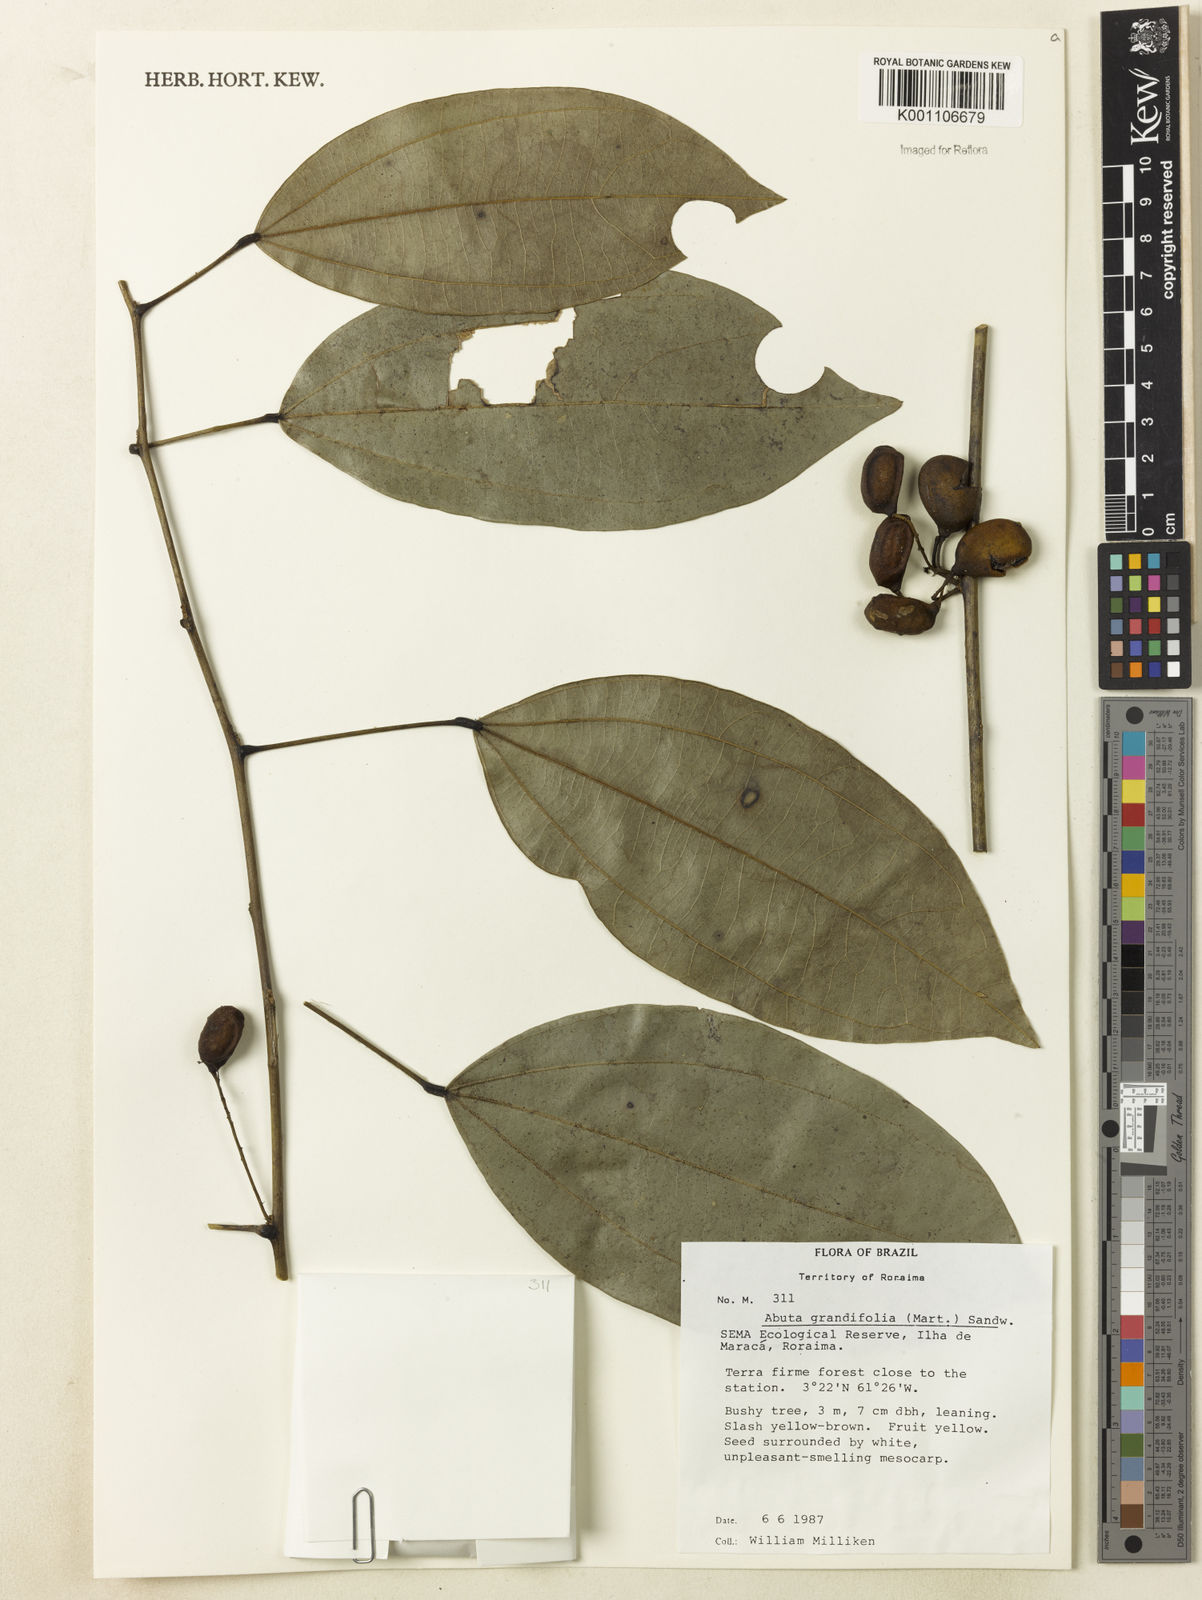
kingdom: Plantae
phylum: Tracheophyta
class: Magnoliopsida
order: Ranunculales
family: Menispermaceae
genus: Abuta
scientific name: Abuta grandifolia
